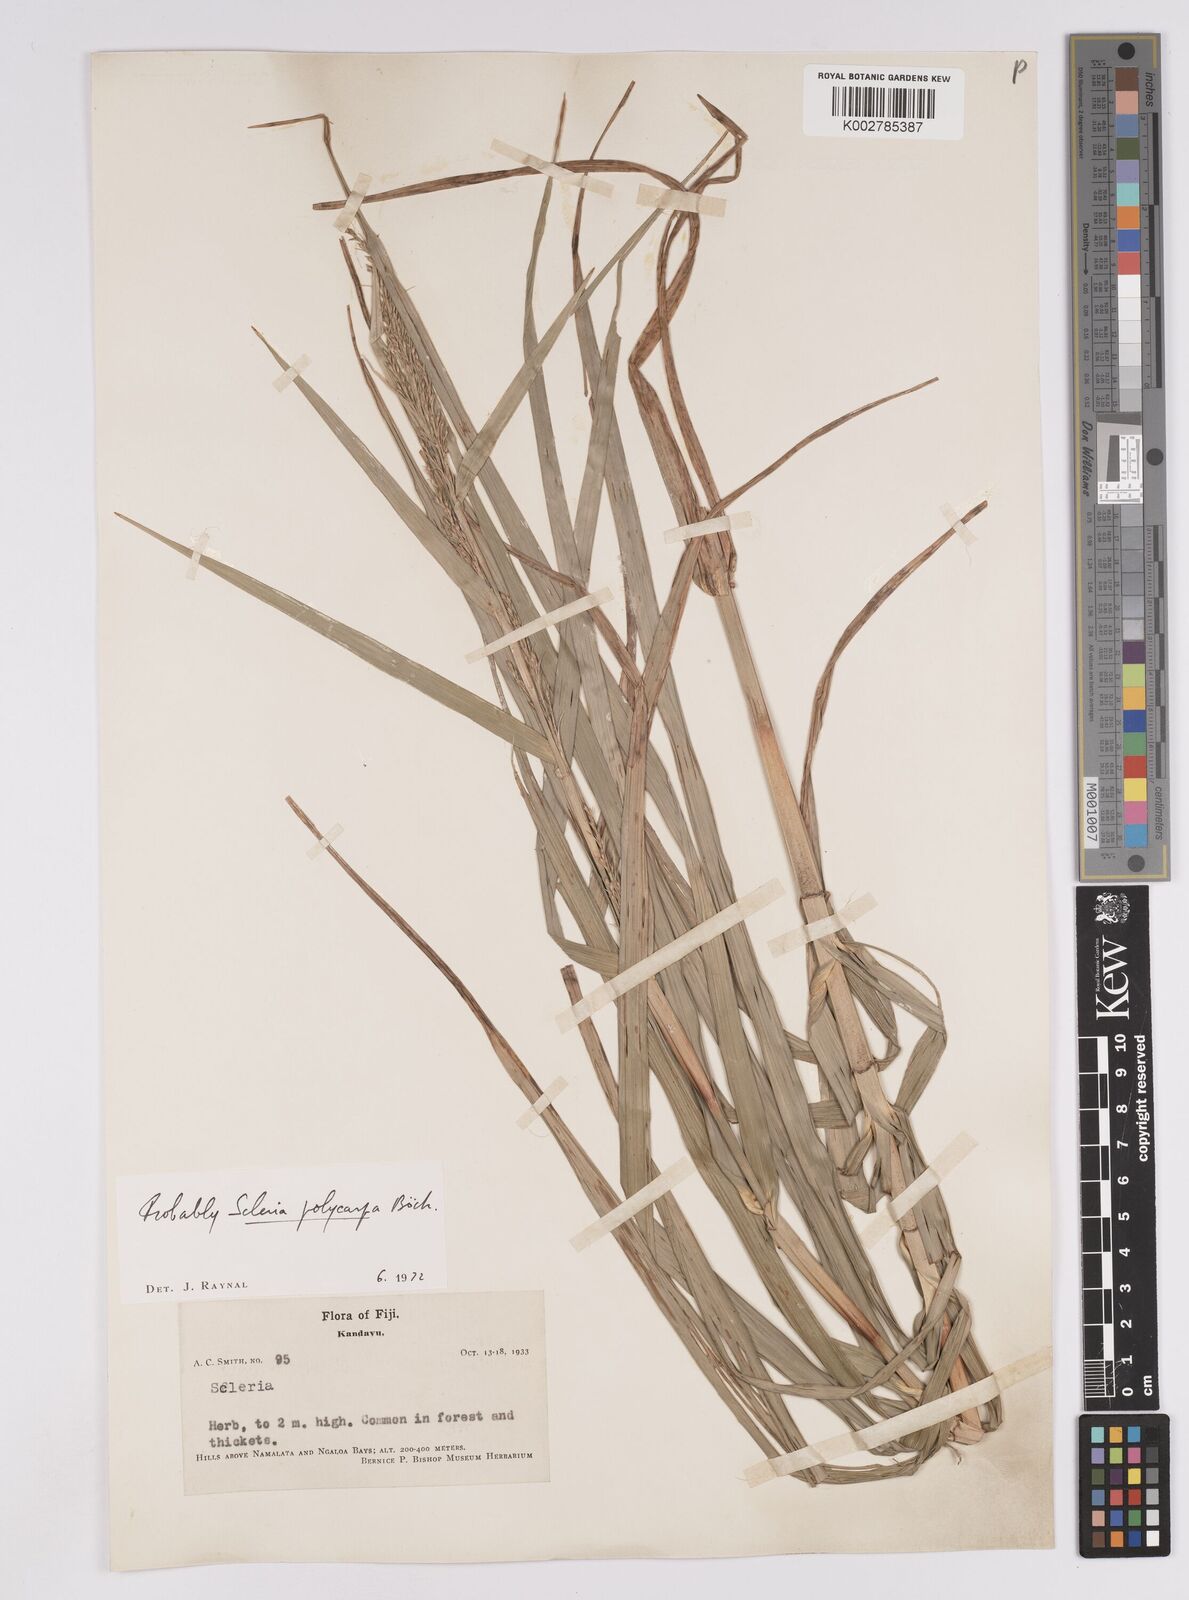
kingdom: Plantae
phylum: Tracheophyta
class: Liliopsida
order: Poales
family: Cyperaceae
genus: Scleria
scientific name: Scleria polycarpa
